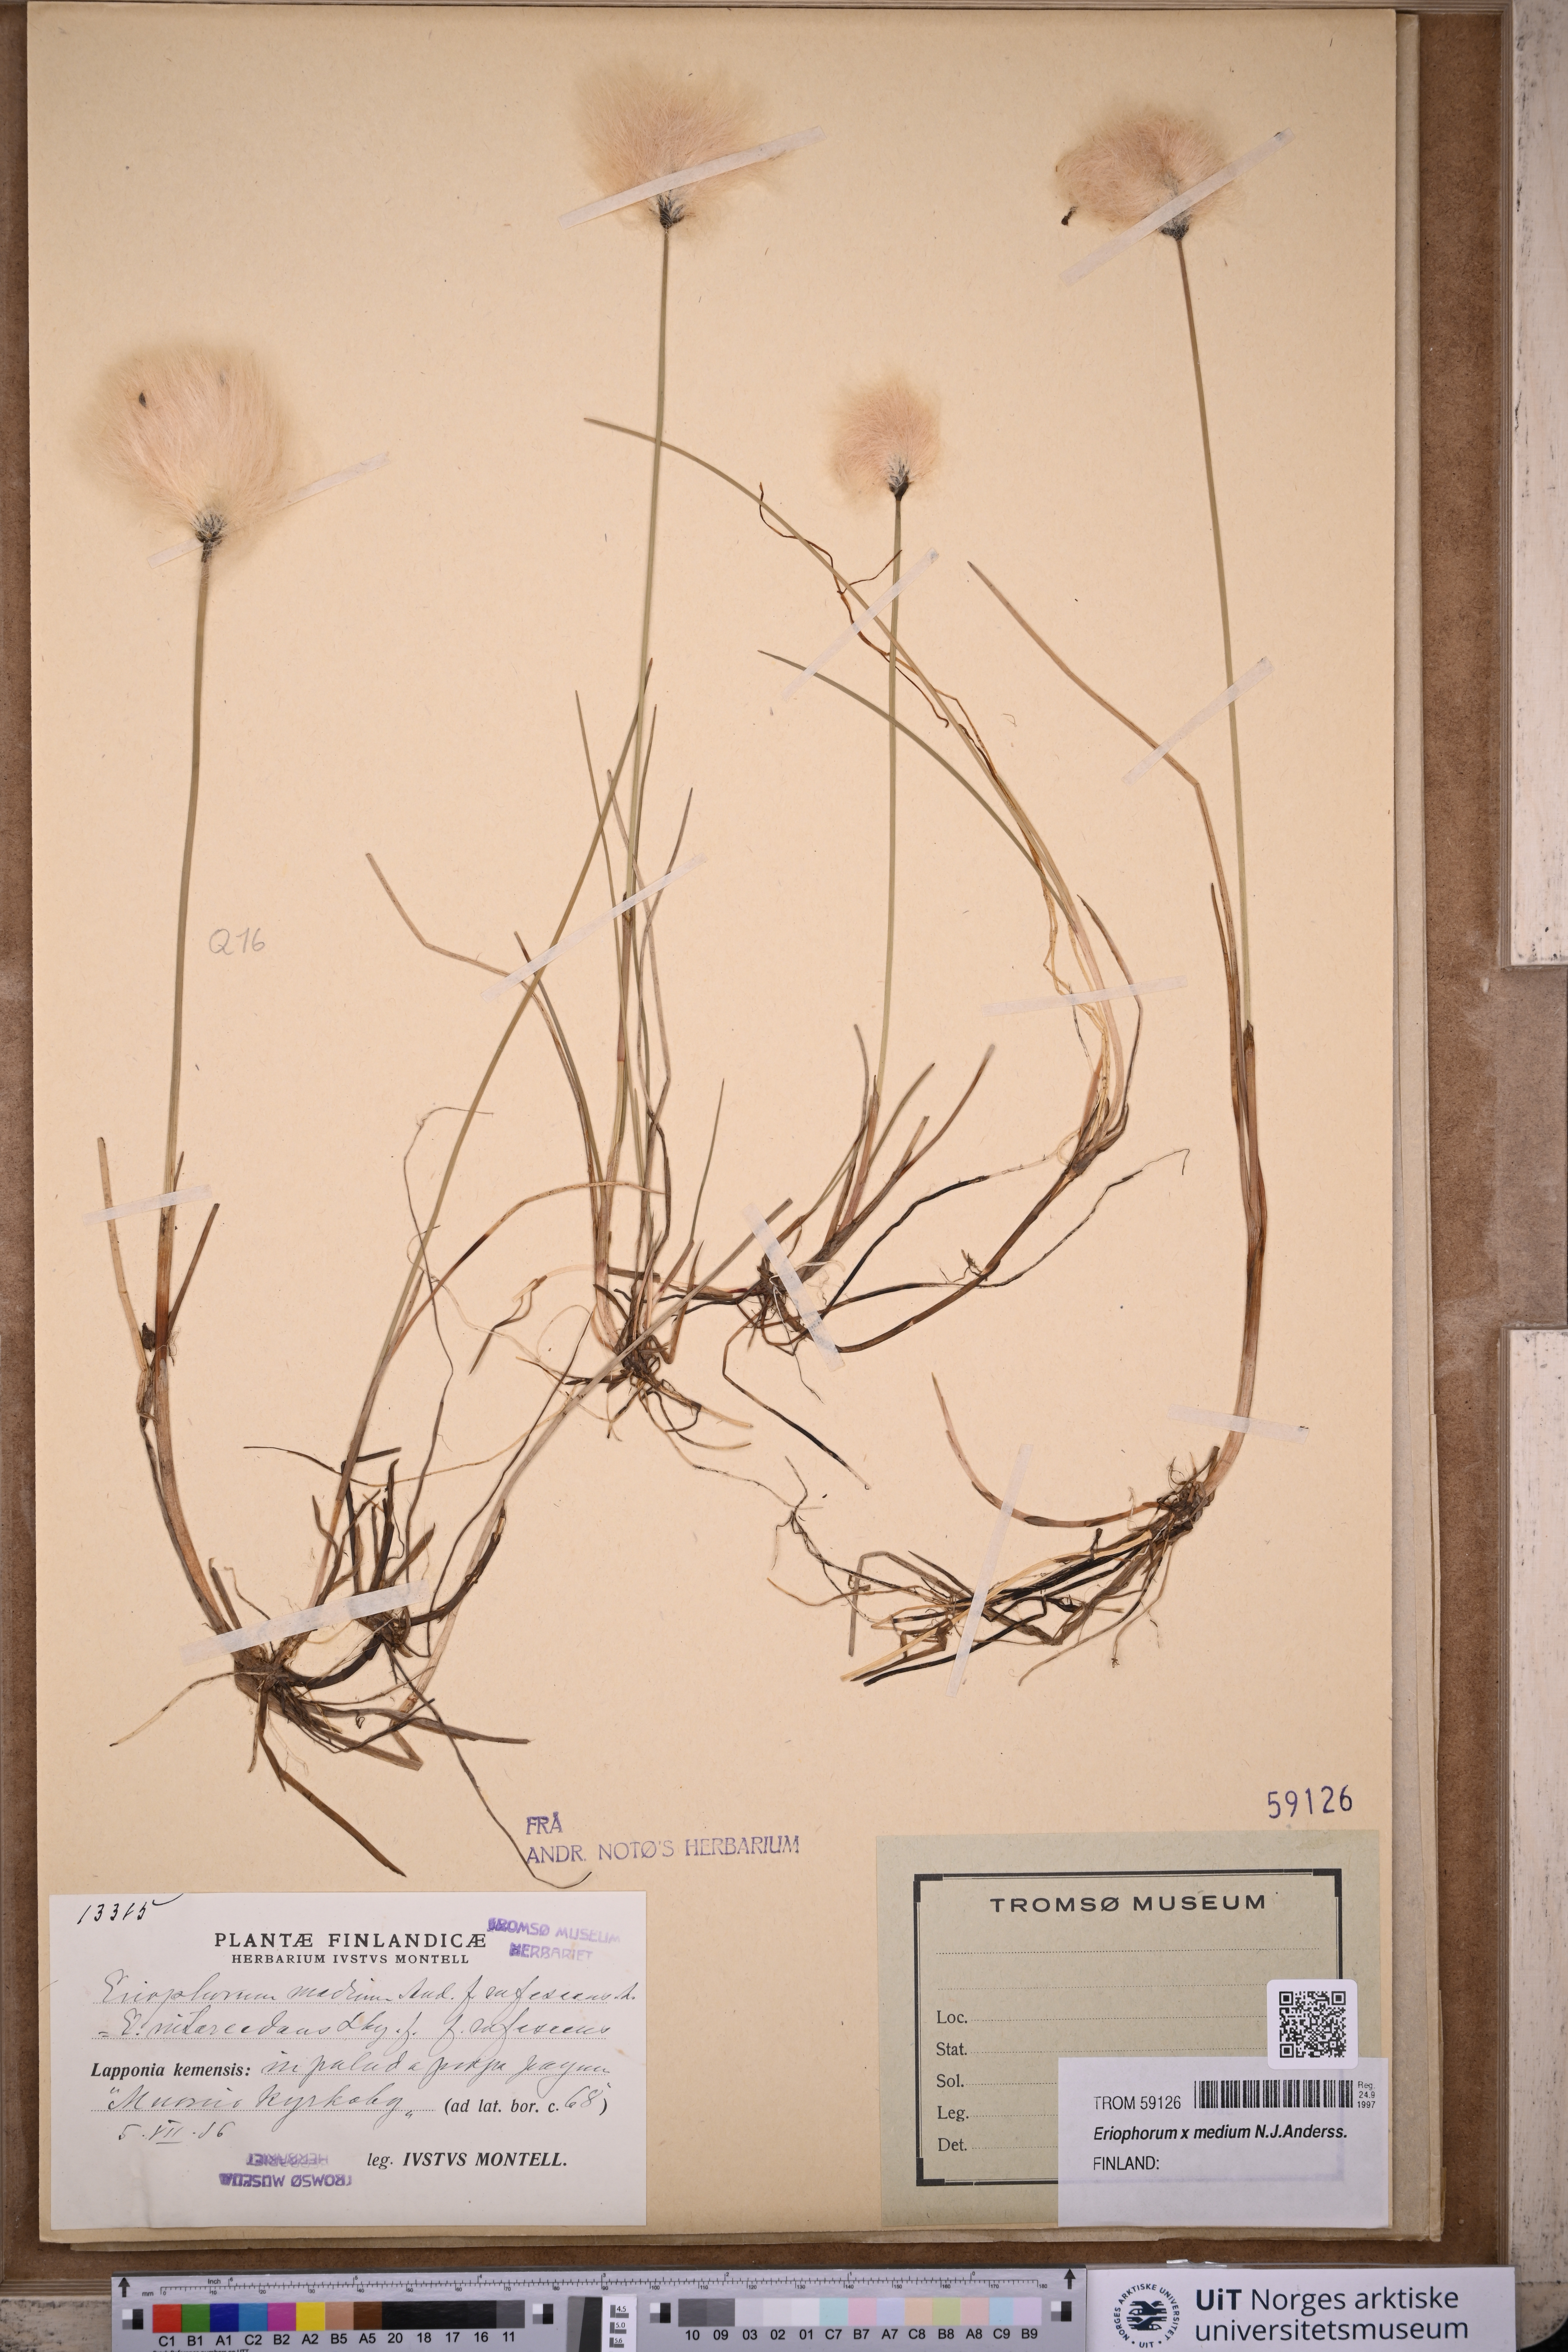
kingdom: Plantae
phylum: Tracheophyta
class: Liliopsida
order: Poales
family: Cyperaceae
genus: Eriophorum
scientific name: Eriophorum medium
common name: Intermediate cottongrass
